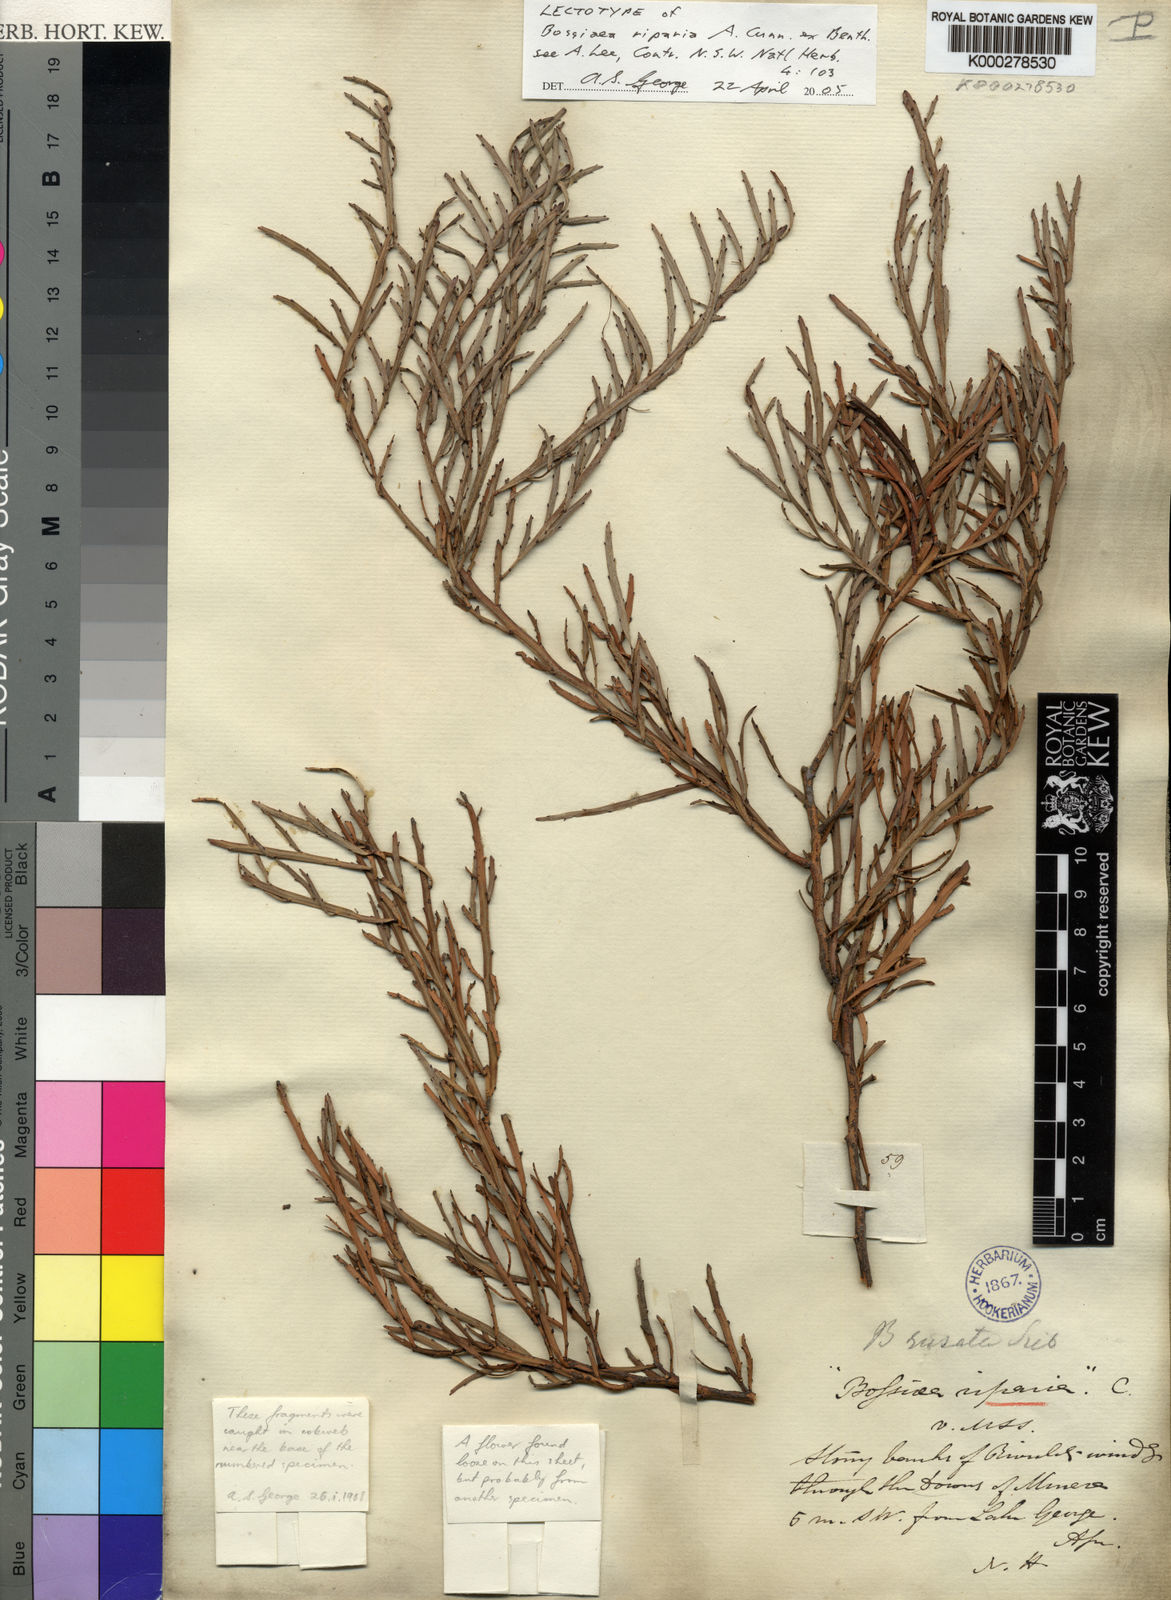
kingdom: Plantae
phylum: Tracheophyta
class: Magnoliopsida
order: Fabales
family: Fabaceae
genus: Bossiaea
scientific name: Bossiaea riparia
